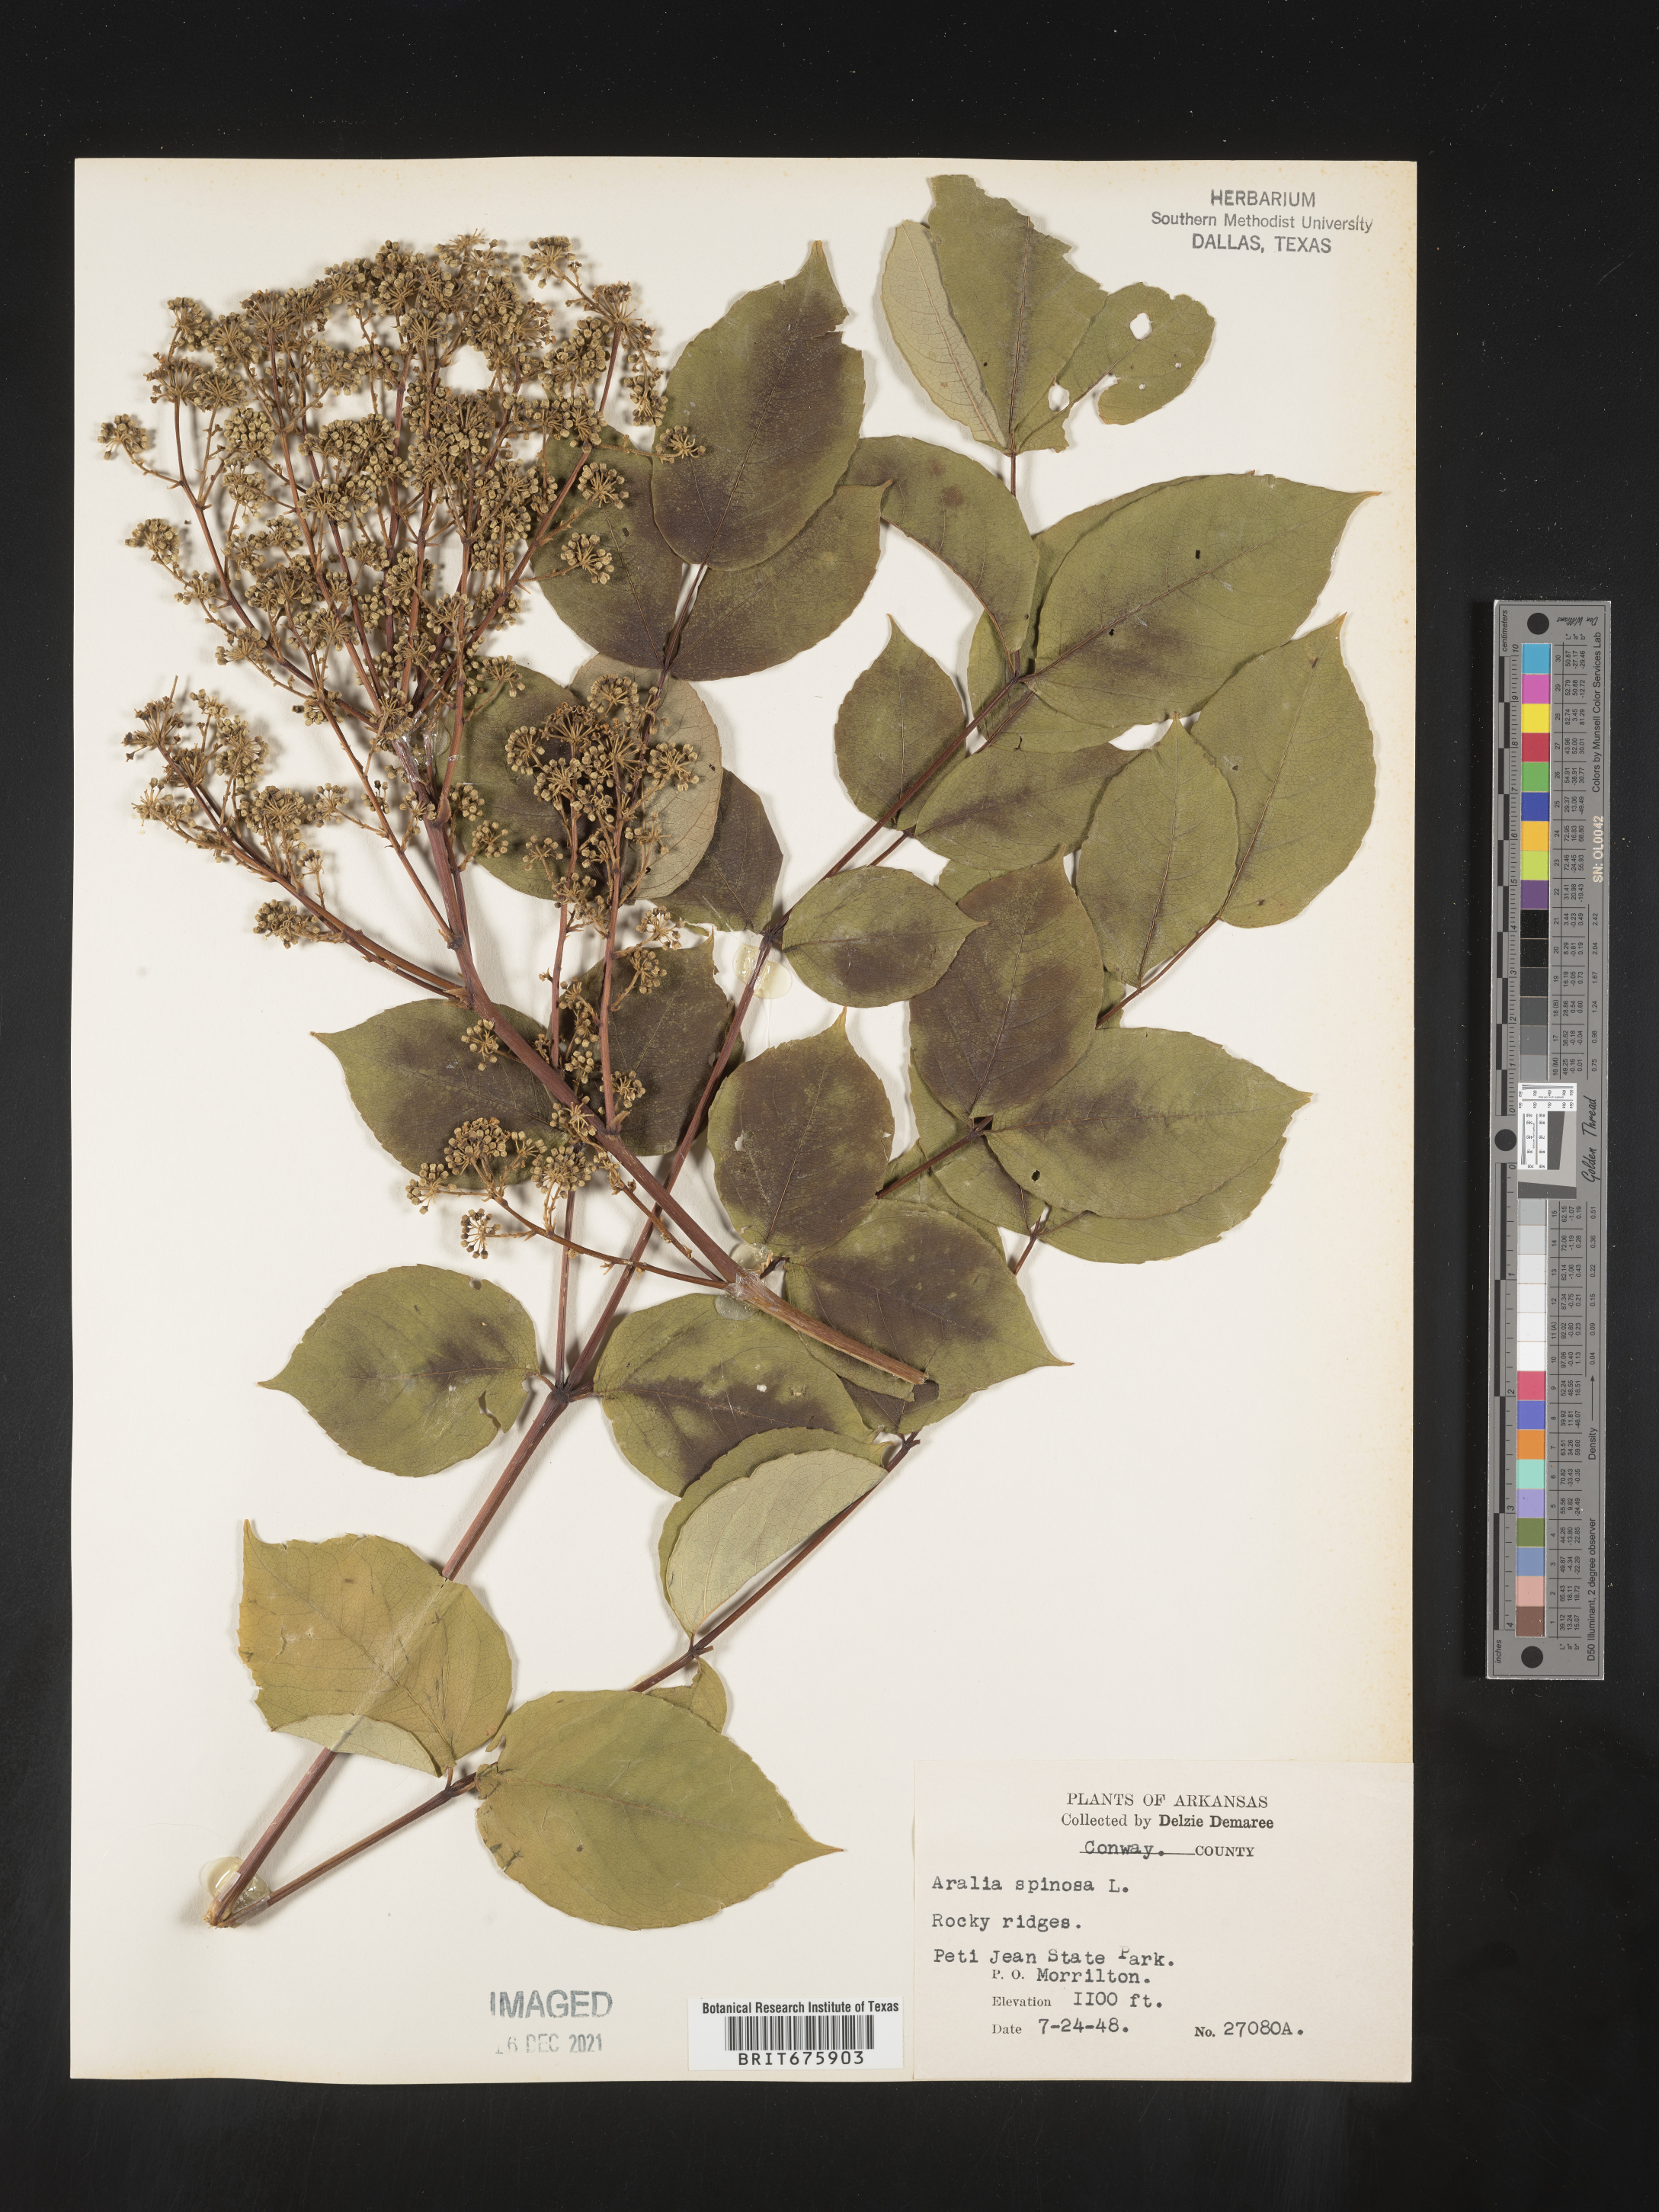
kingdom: Plantae
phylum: Tracheophyta
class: Magnoliopsida
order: Apiales
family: Araliaceae
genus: Aralia
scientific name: Aralia spinosa
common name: Hercules'-club
